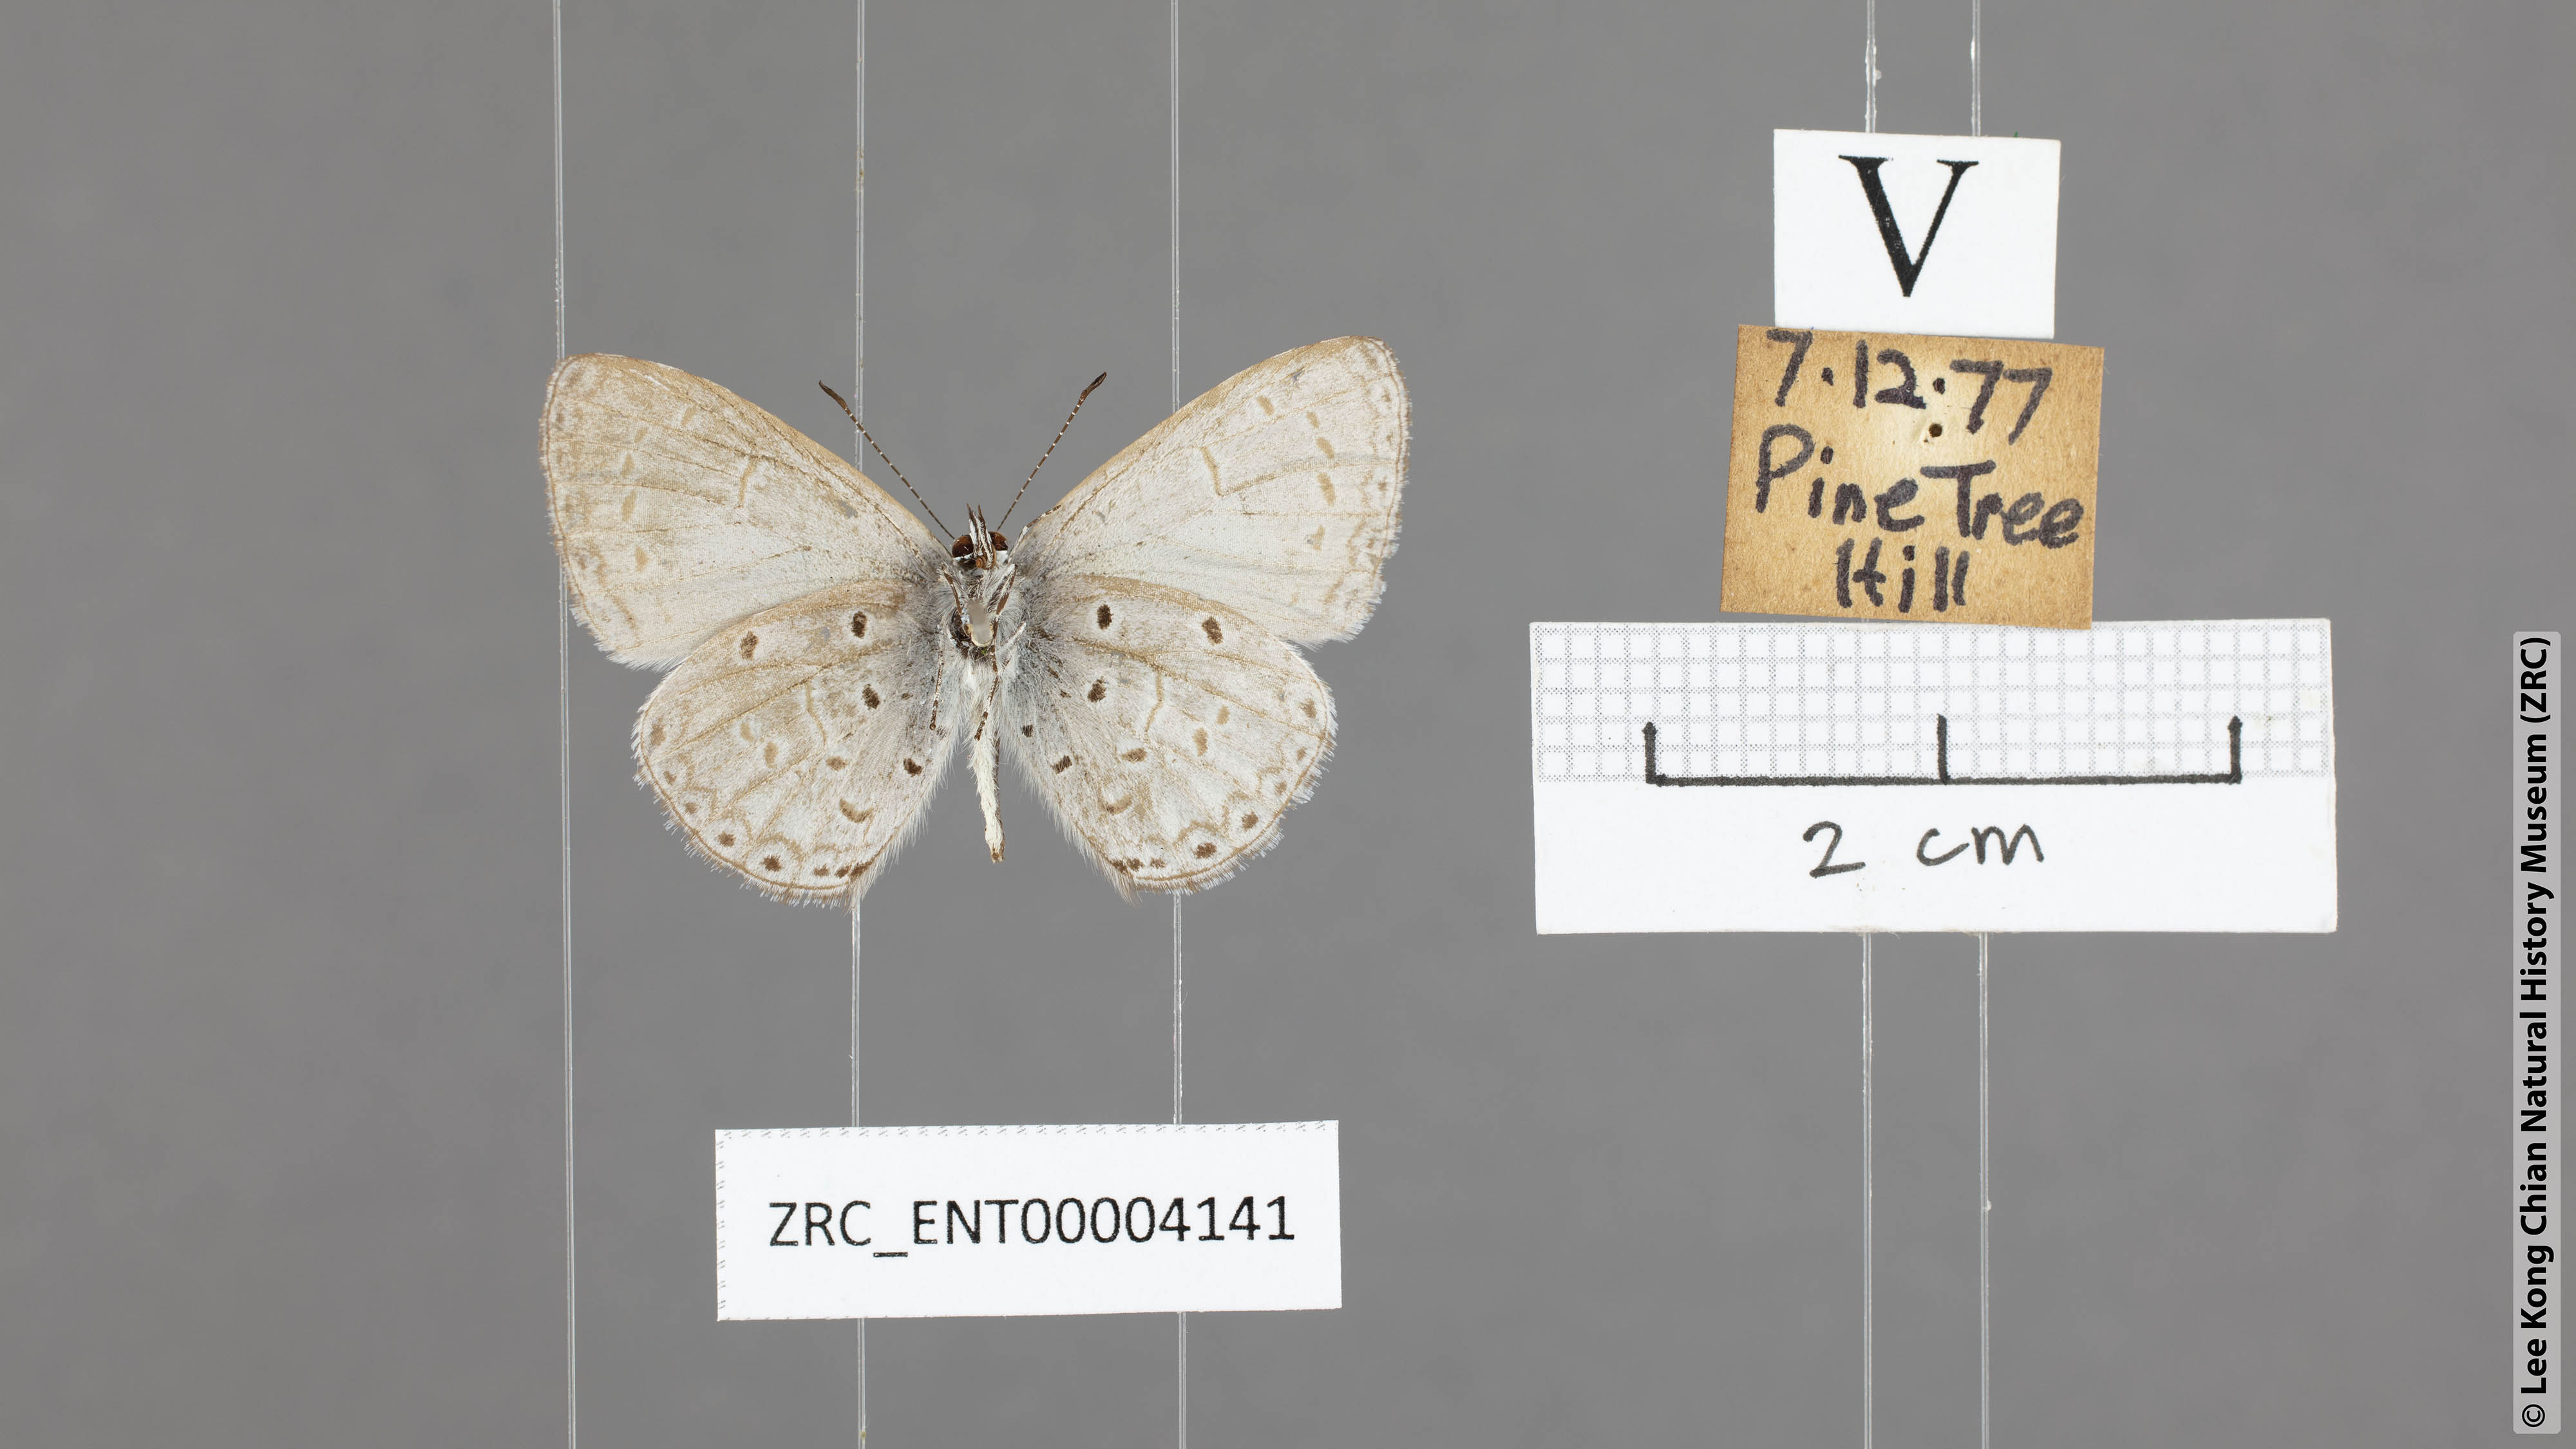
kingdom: Animalia
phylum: Arthropoda
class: Insecta
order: Lepidoptera
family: Lycaenidae
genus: Celastrina
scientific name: Celastrina lavendularis
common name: Plain hedge blue
